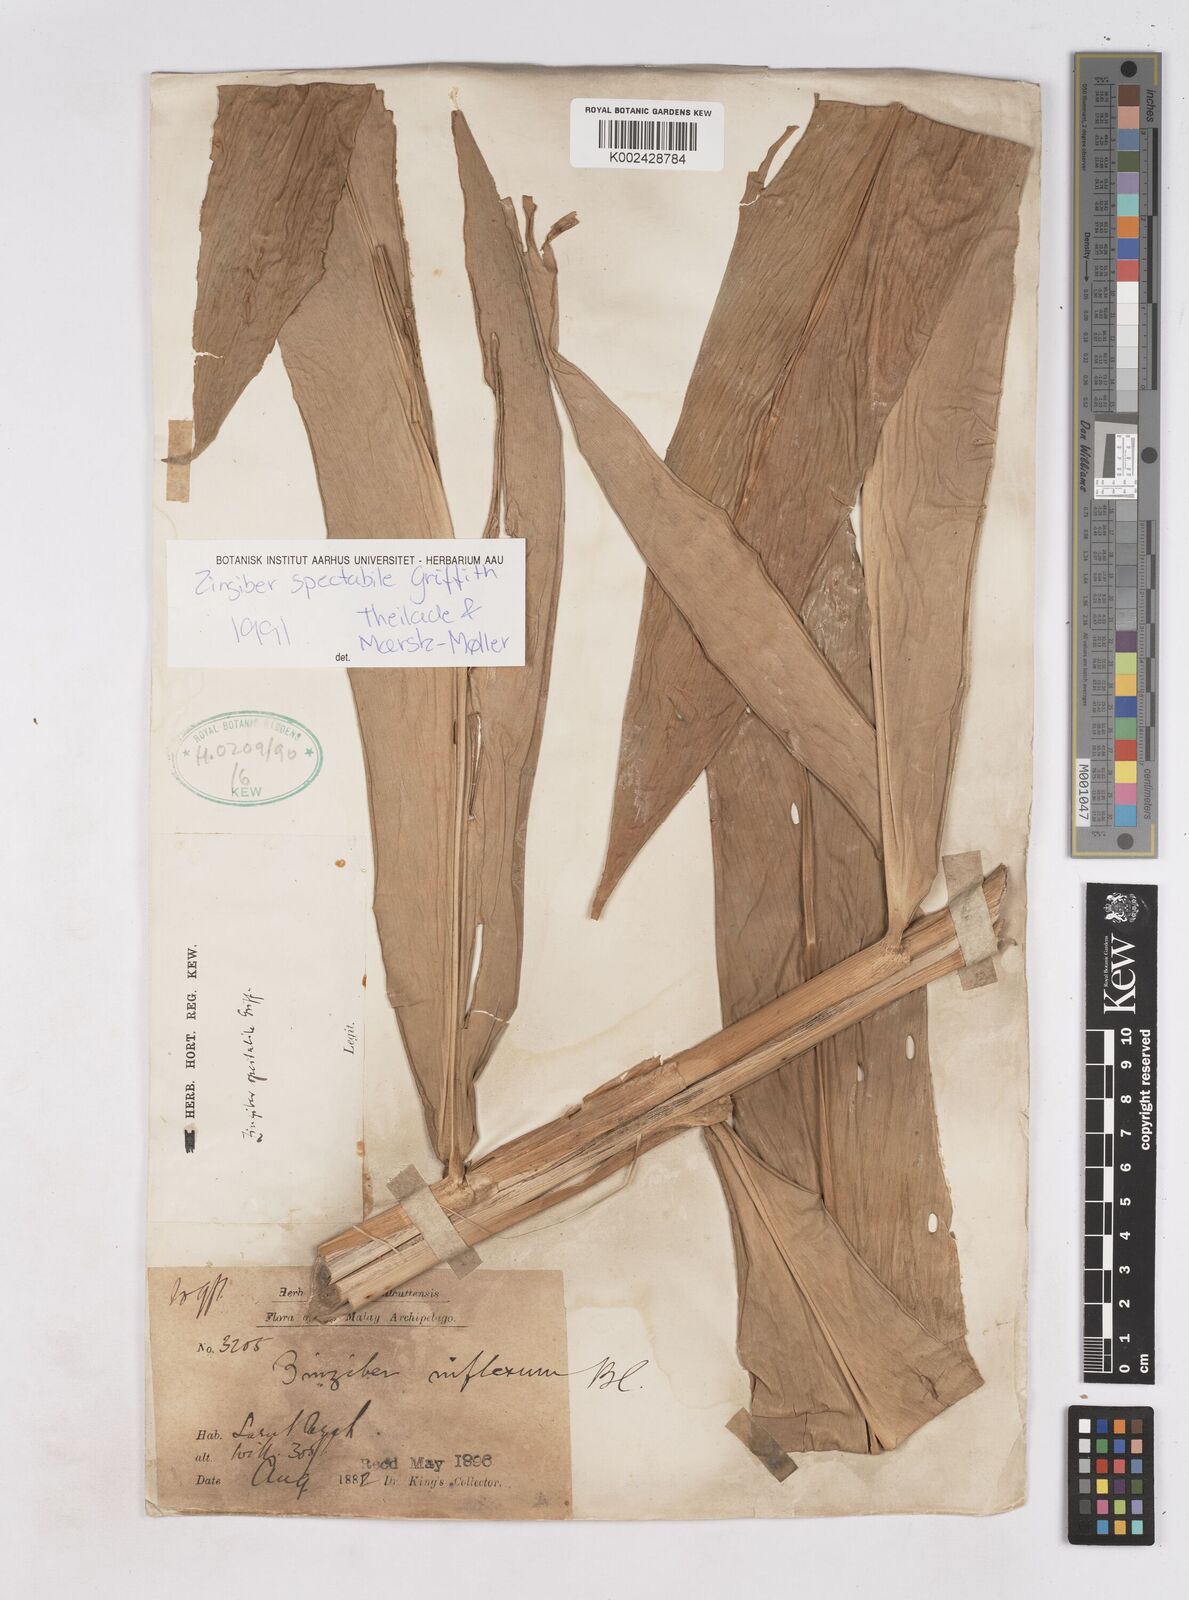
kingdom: Plantae
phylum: Tracheophyta
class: Liliopsida
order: Zingiberales
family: Zingiberaceae
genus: Zingiber
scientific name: Zingiber spectabile
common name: Beehive ginger
